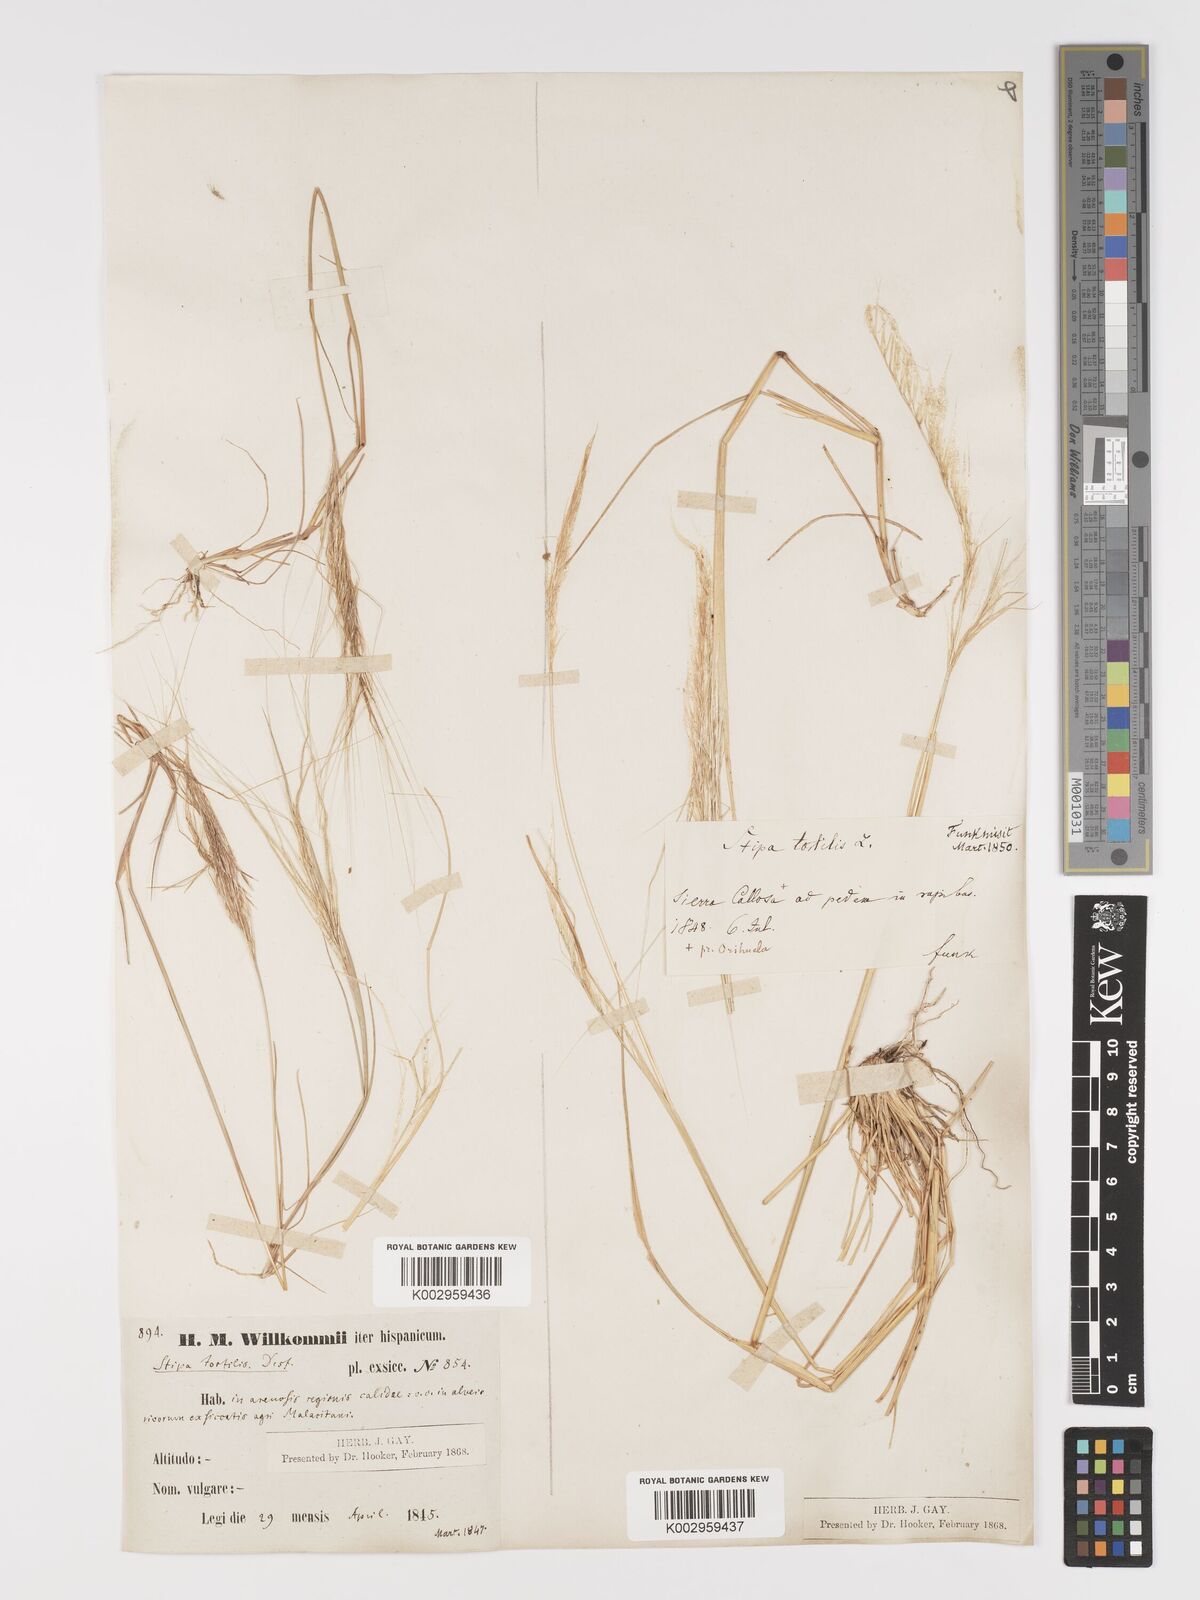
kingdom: Plantae
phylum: Tracheophyta
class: Liliopsida
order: Poales
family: Poaceae
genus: Stipa
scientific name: Stipa
